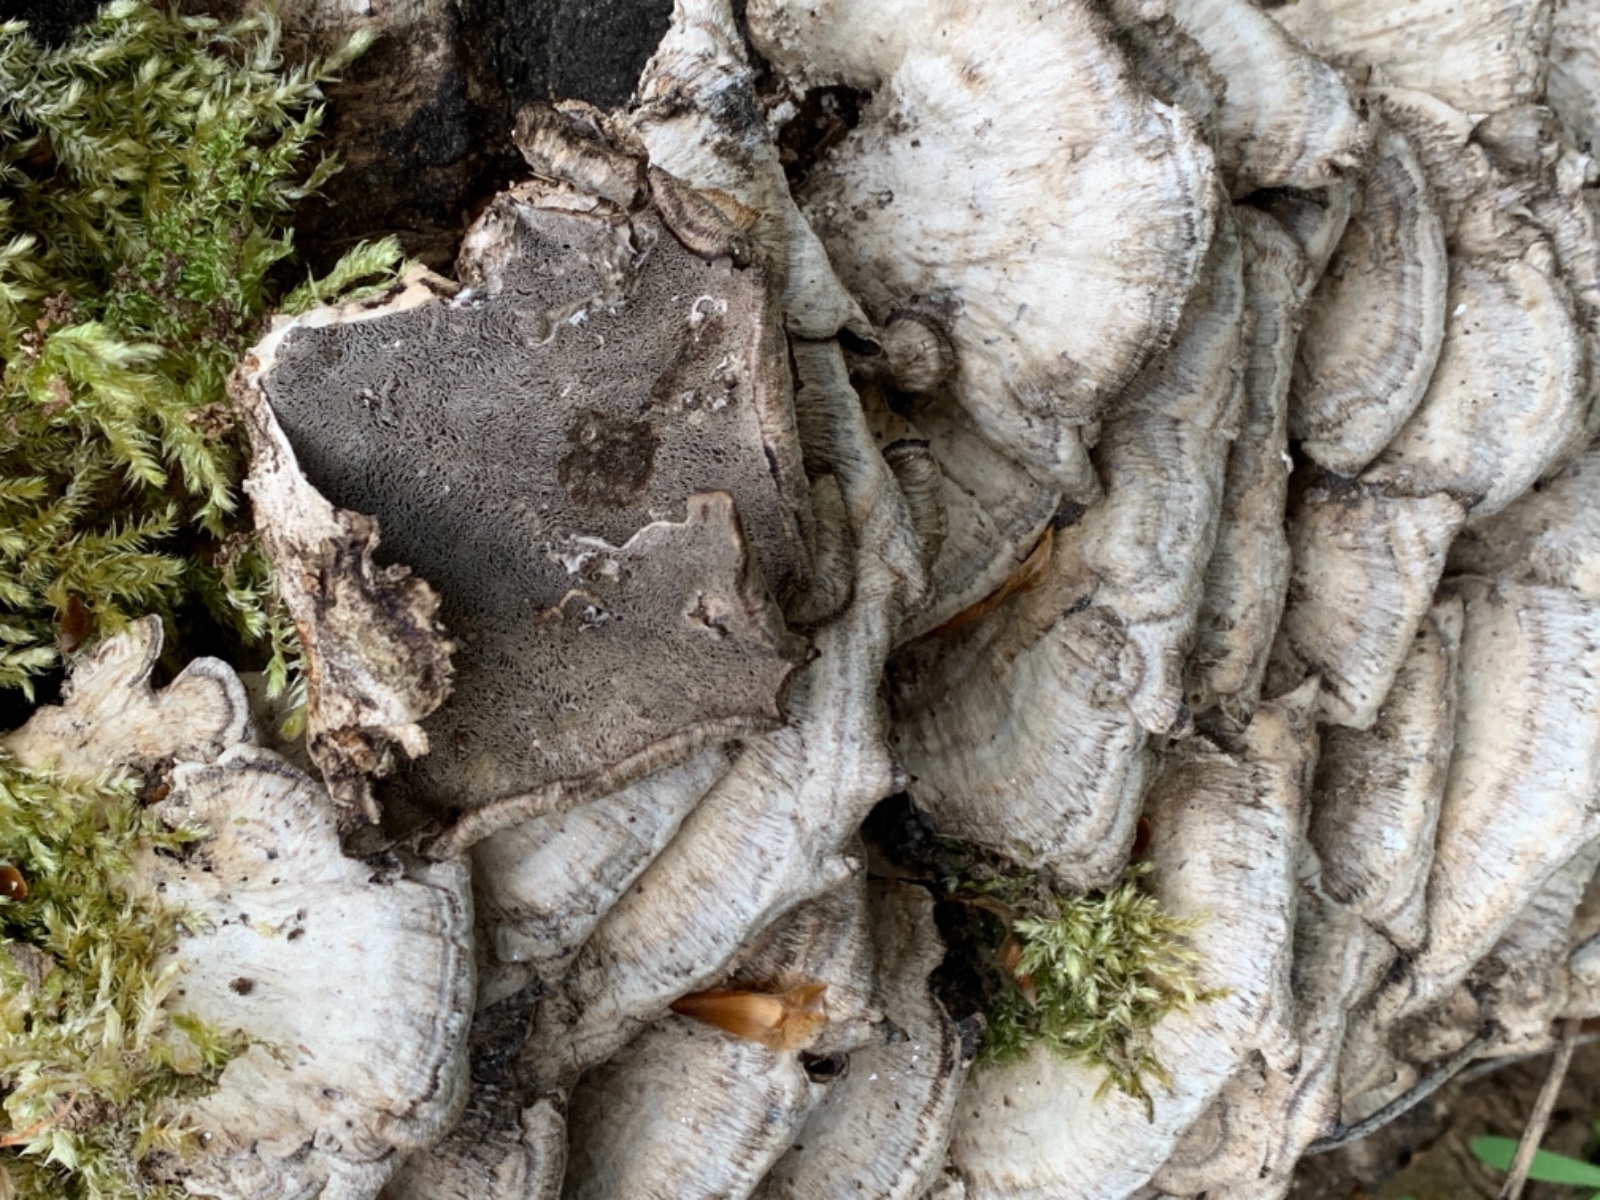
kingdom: Fungi
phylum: Basidiomycota
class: Agaricomycetes
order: Polyporales
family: Phanerochaetaceae
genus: Bjerkandera
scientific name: Bjerkandera adusta
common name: sveden sodporesvamp
